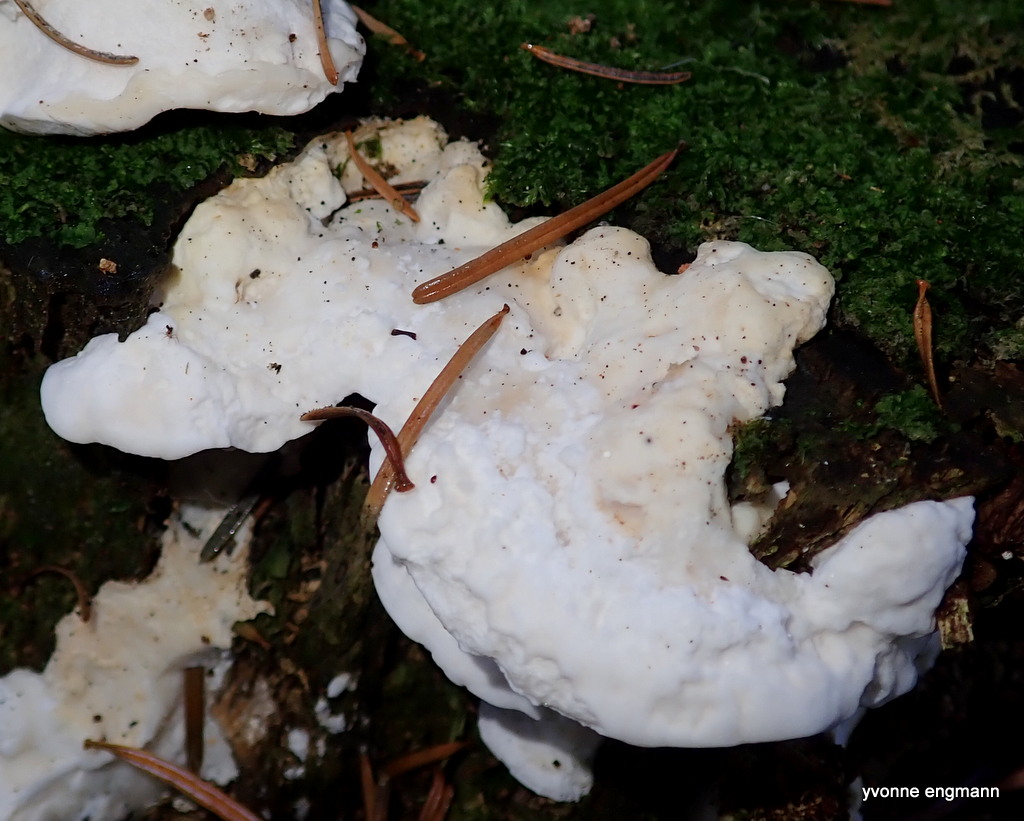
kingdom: Fungi
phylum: Basidiomycota
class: Agaricomycetes
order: Polyporales
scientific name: Polyporales
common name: poresvampordenen
